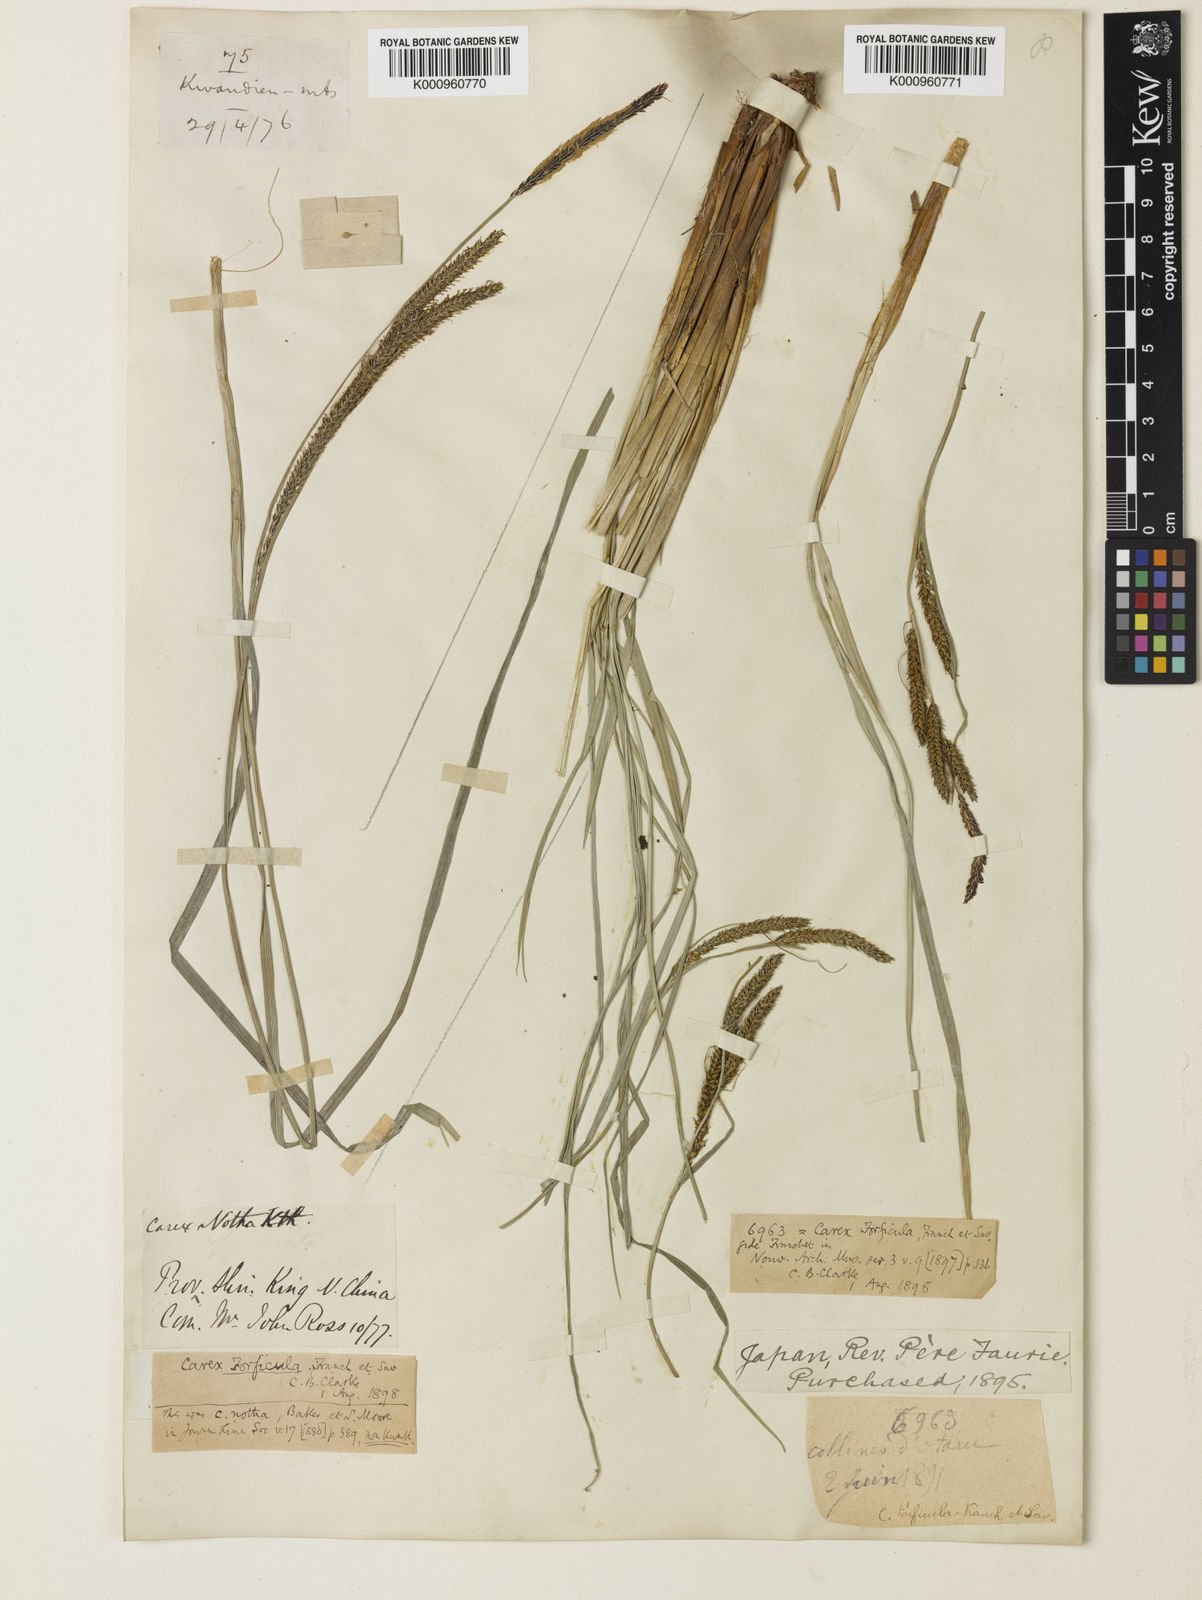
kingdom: Plantae
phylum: Tracheophyta
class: Liliopsida
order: Poales
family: Cyperaceae
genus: Carex
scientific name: Carex forficula
